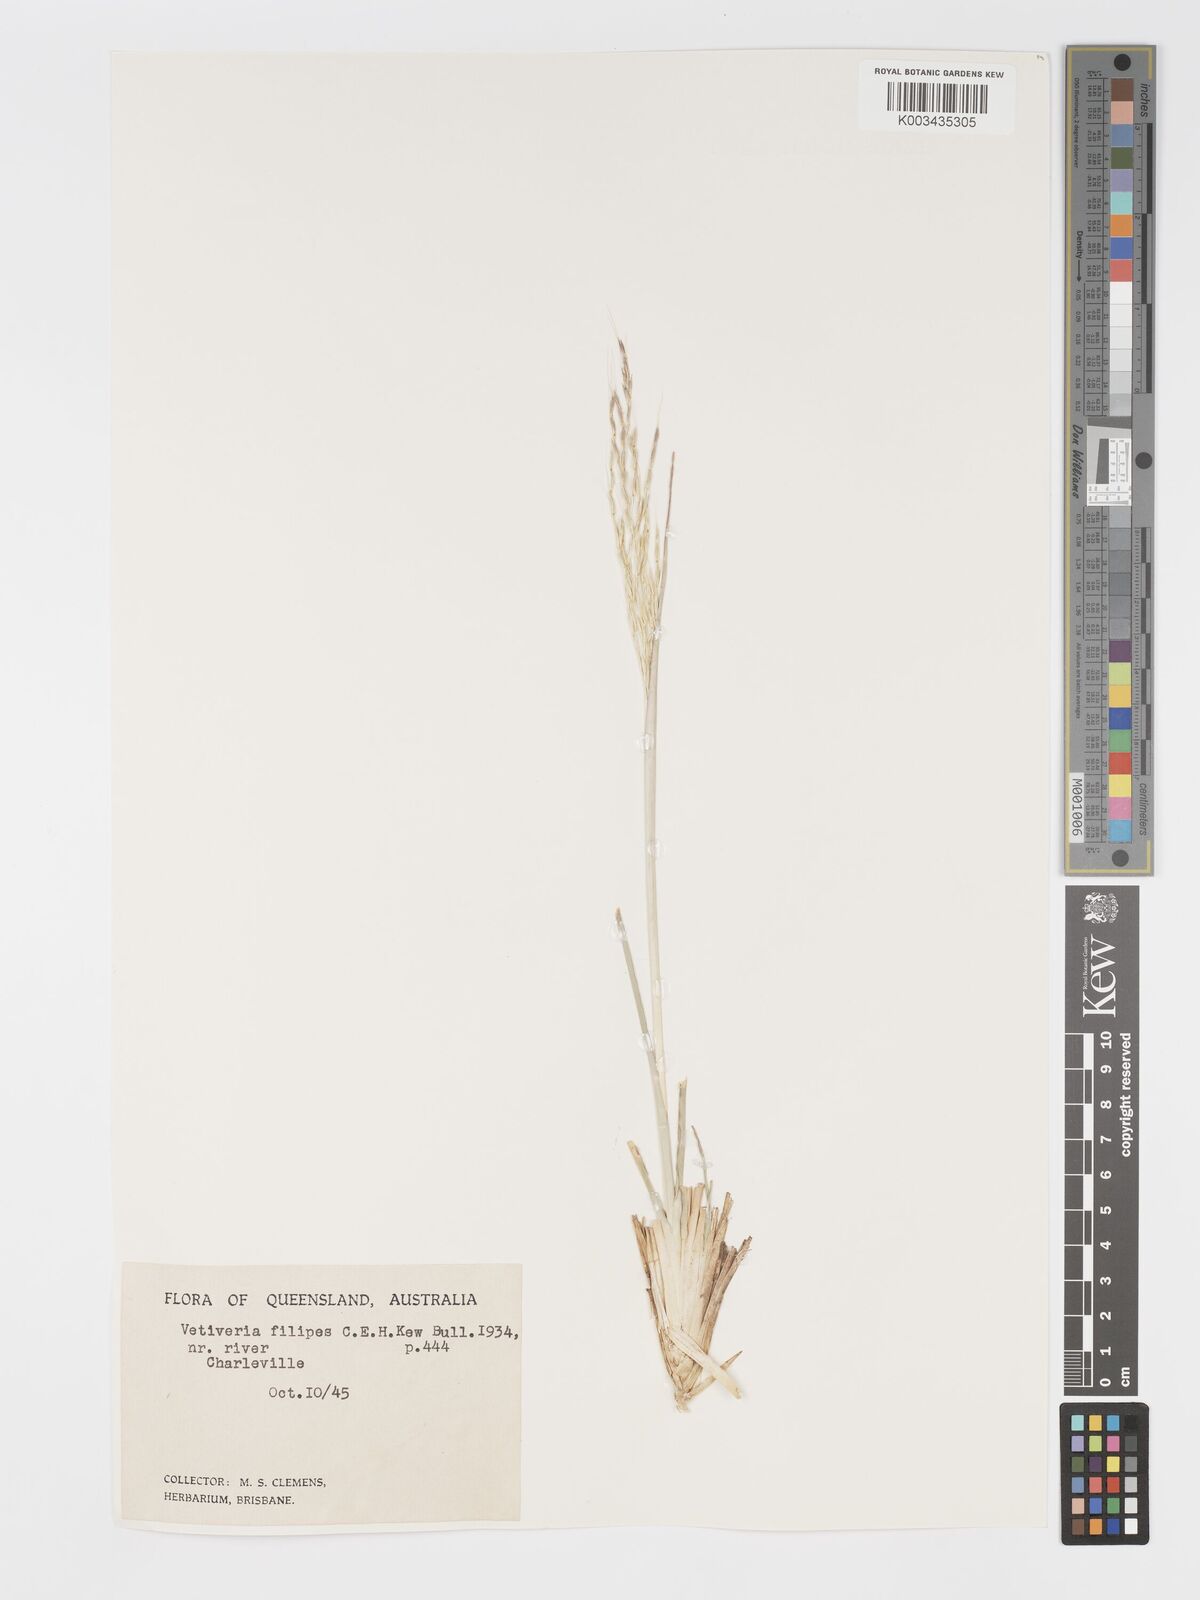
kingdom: Plantae
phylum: Tracheophyta
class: Liliopsida
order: Poales
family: Poaceae
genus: Chrysopogon
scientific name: Chrysopogon filipes
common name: Australian vetiver
